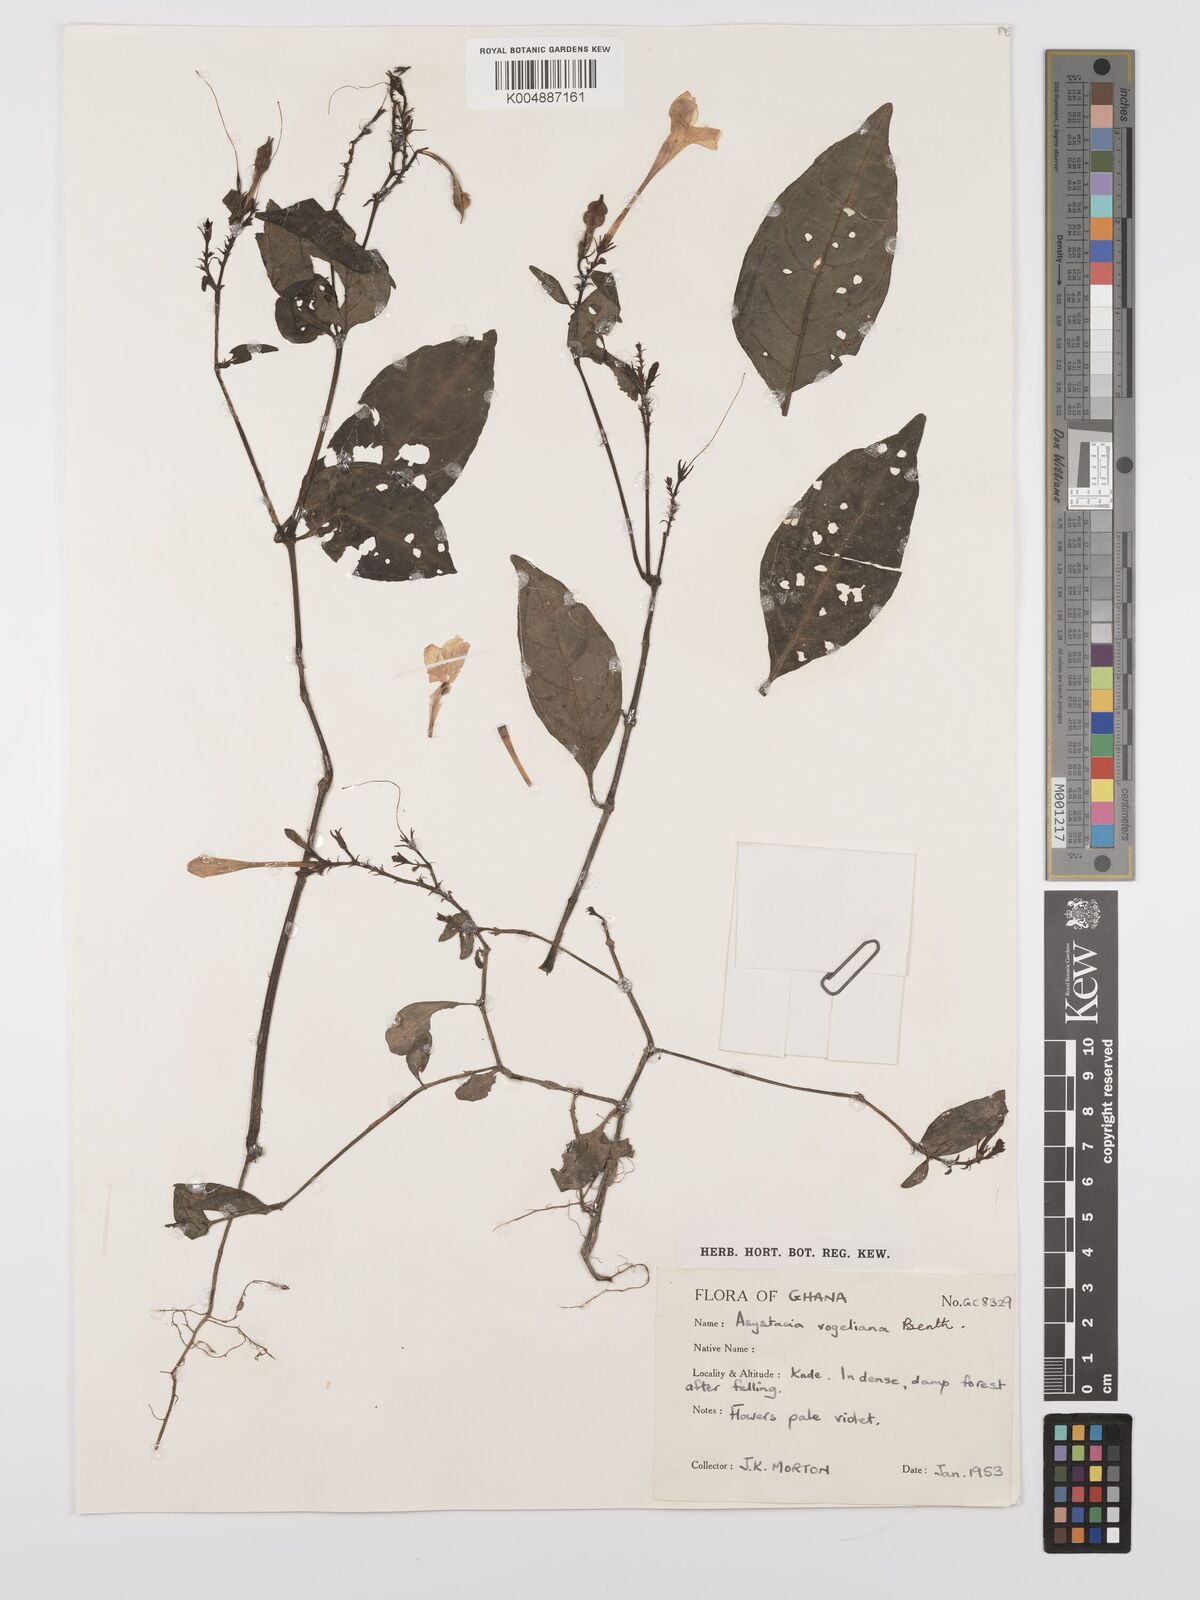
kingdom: Plantae
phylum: Tracheophyta
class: Magnoliopsida
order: Lamiales
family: Acanthaceae
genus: Asystasia
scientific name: Asystasia vogeliana
